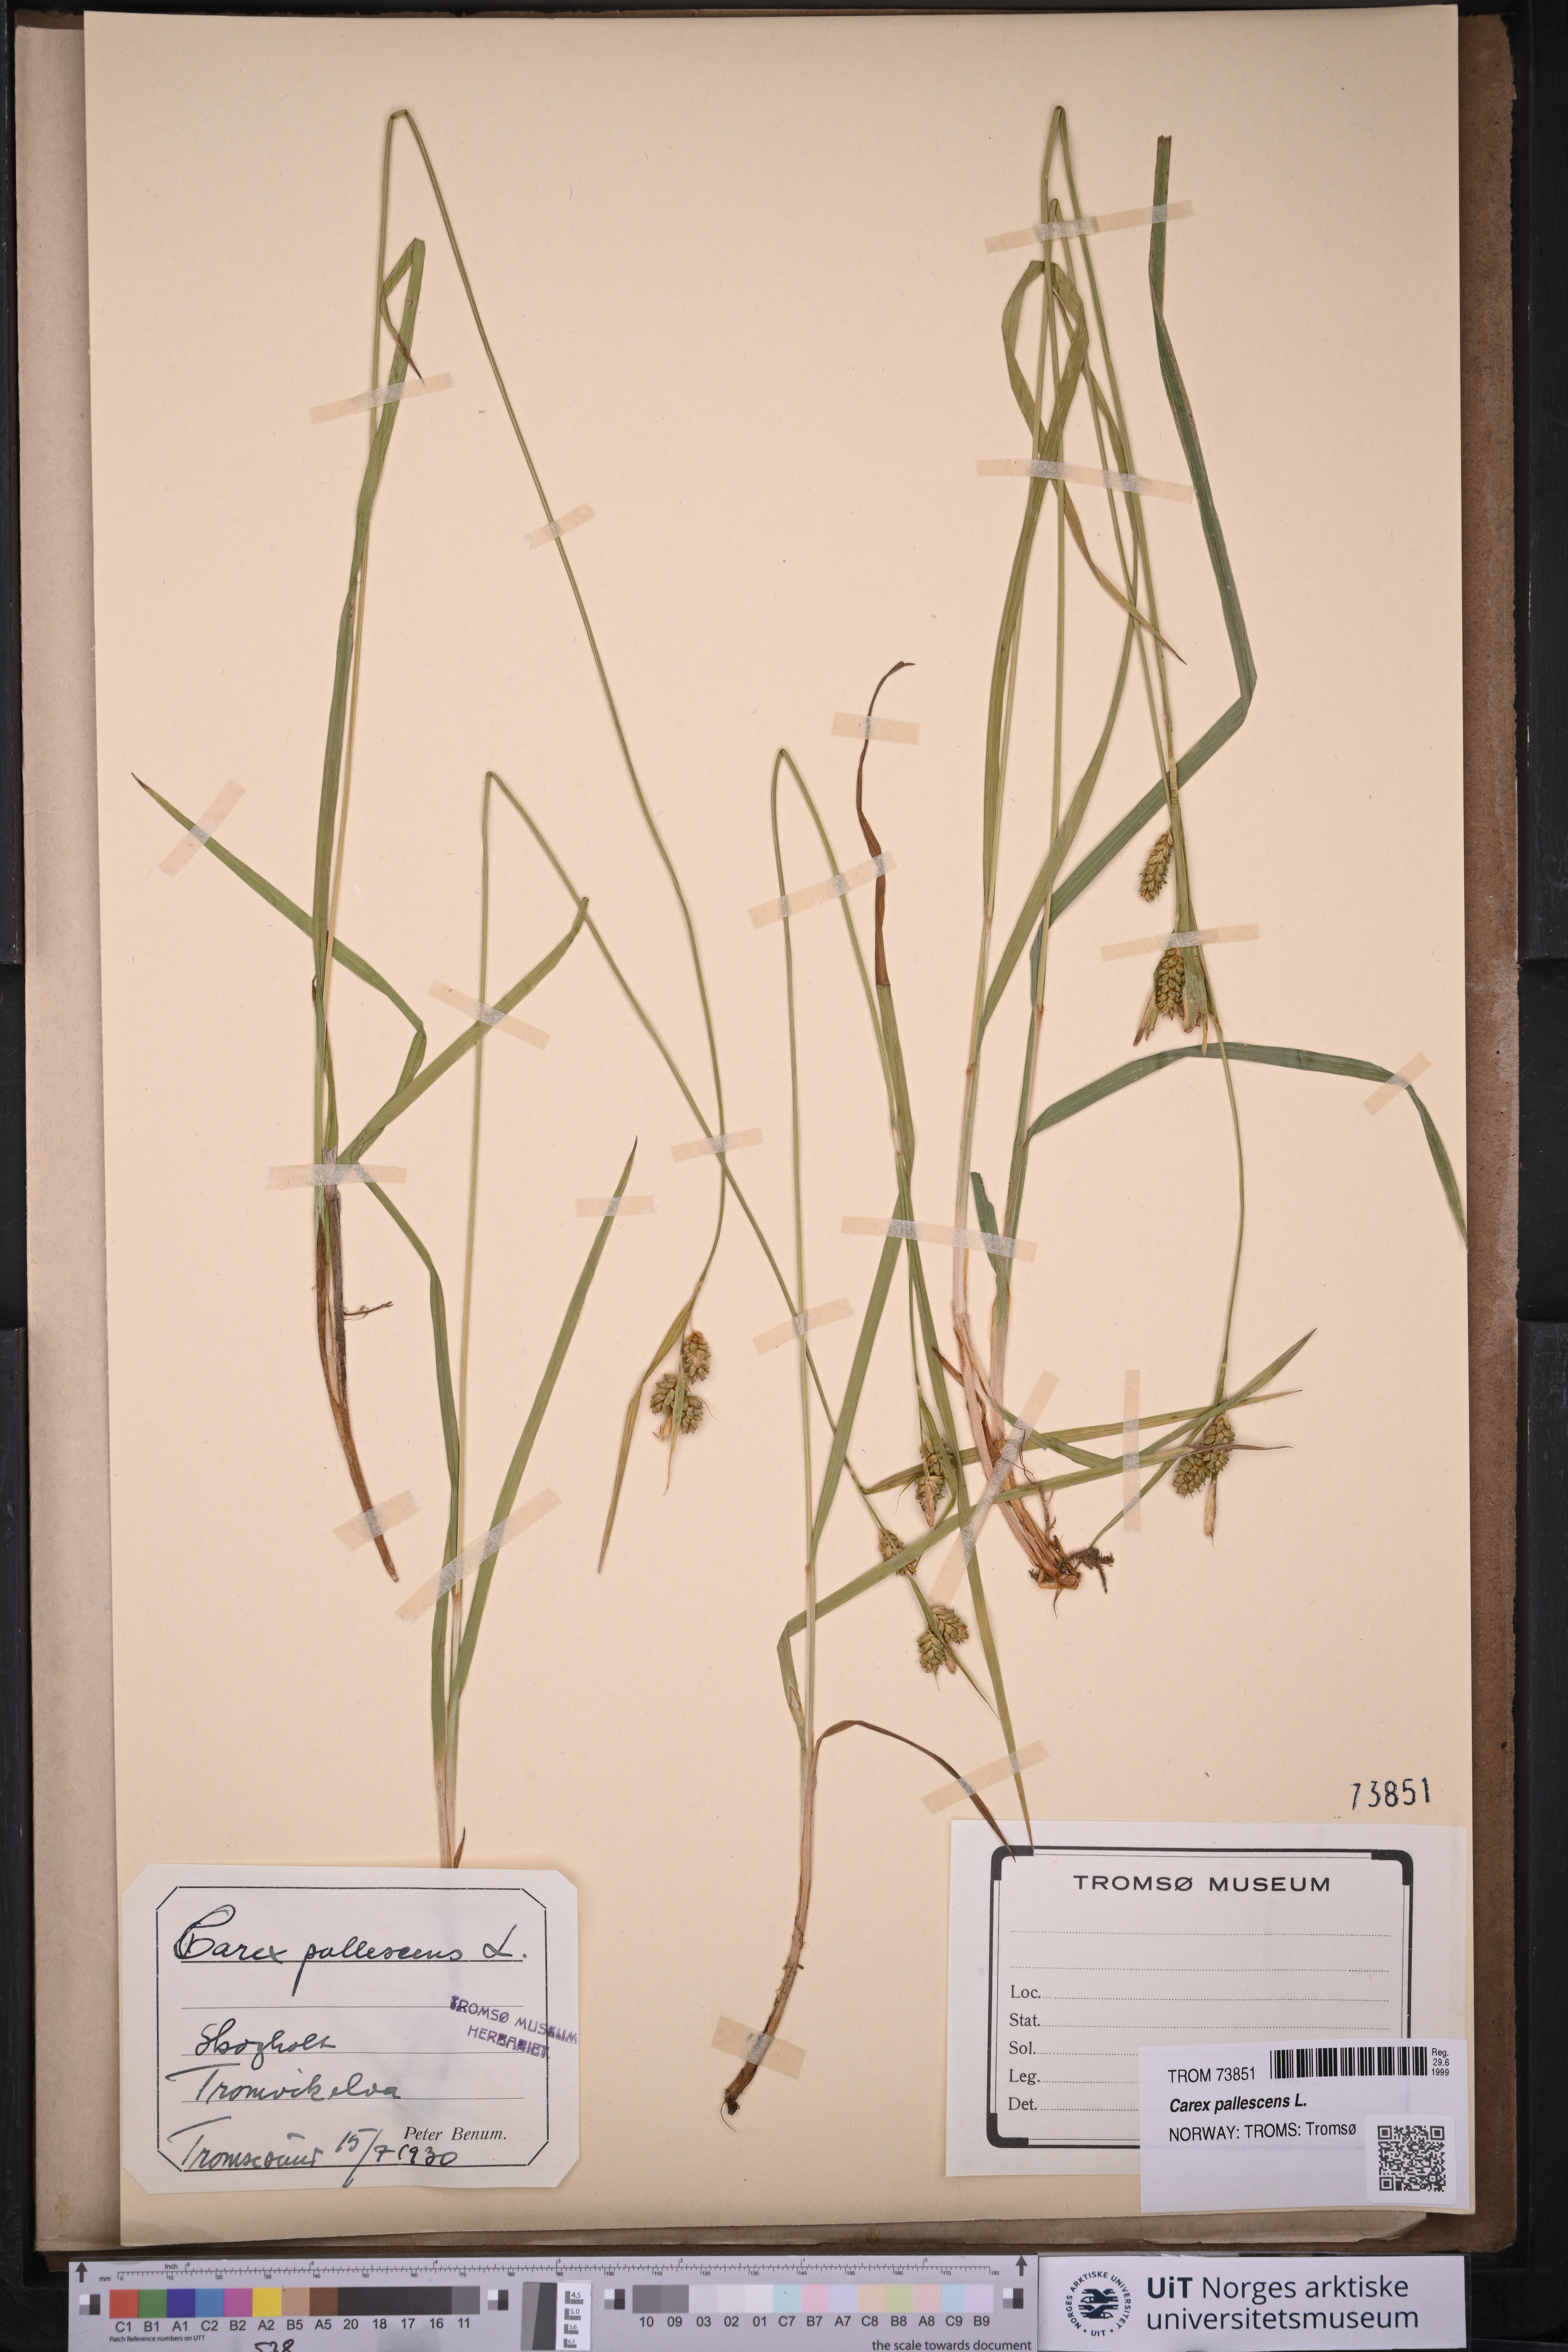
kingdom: Plantae
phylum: Tracheophyta
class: Liliopsida
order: Poales
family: Cyperaceae
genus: Carex
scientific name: Carex pallescens
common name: Pale sedge
